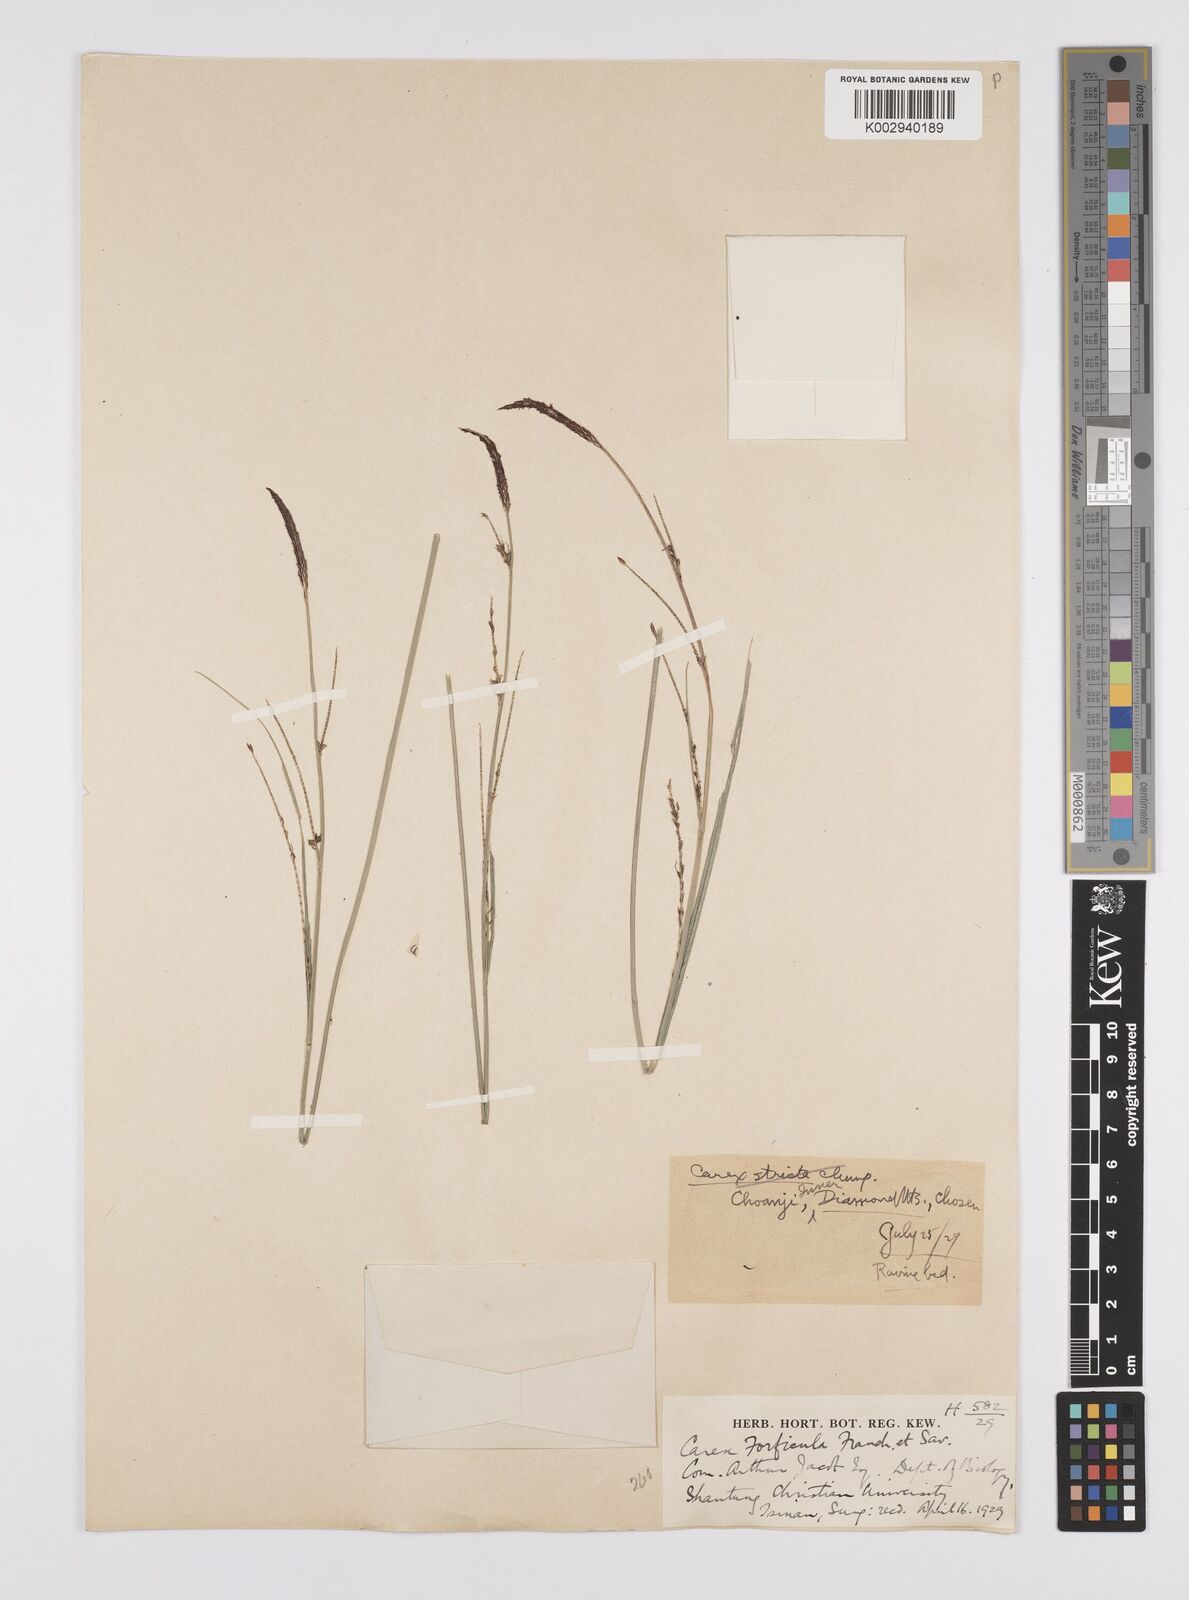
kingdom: Plantae
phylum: Tracheophyta
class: Liliopsida
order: Poales
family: Cyperaceae
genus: Carex
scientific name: Carex forficula
